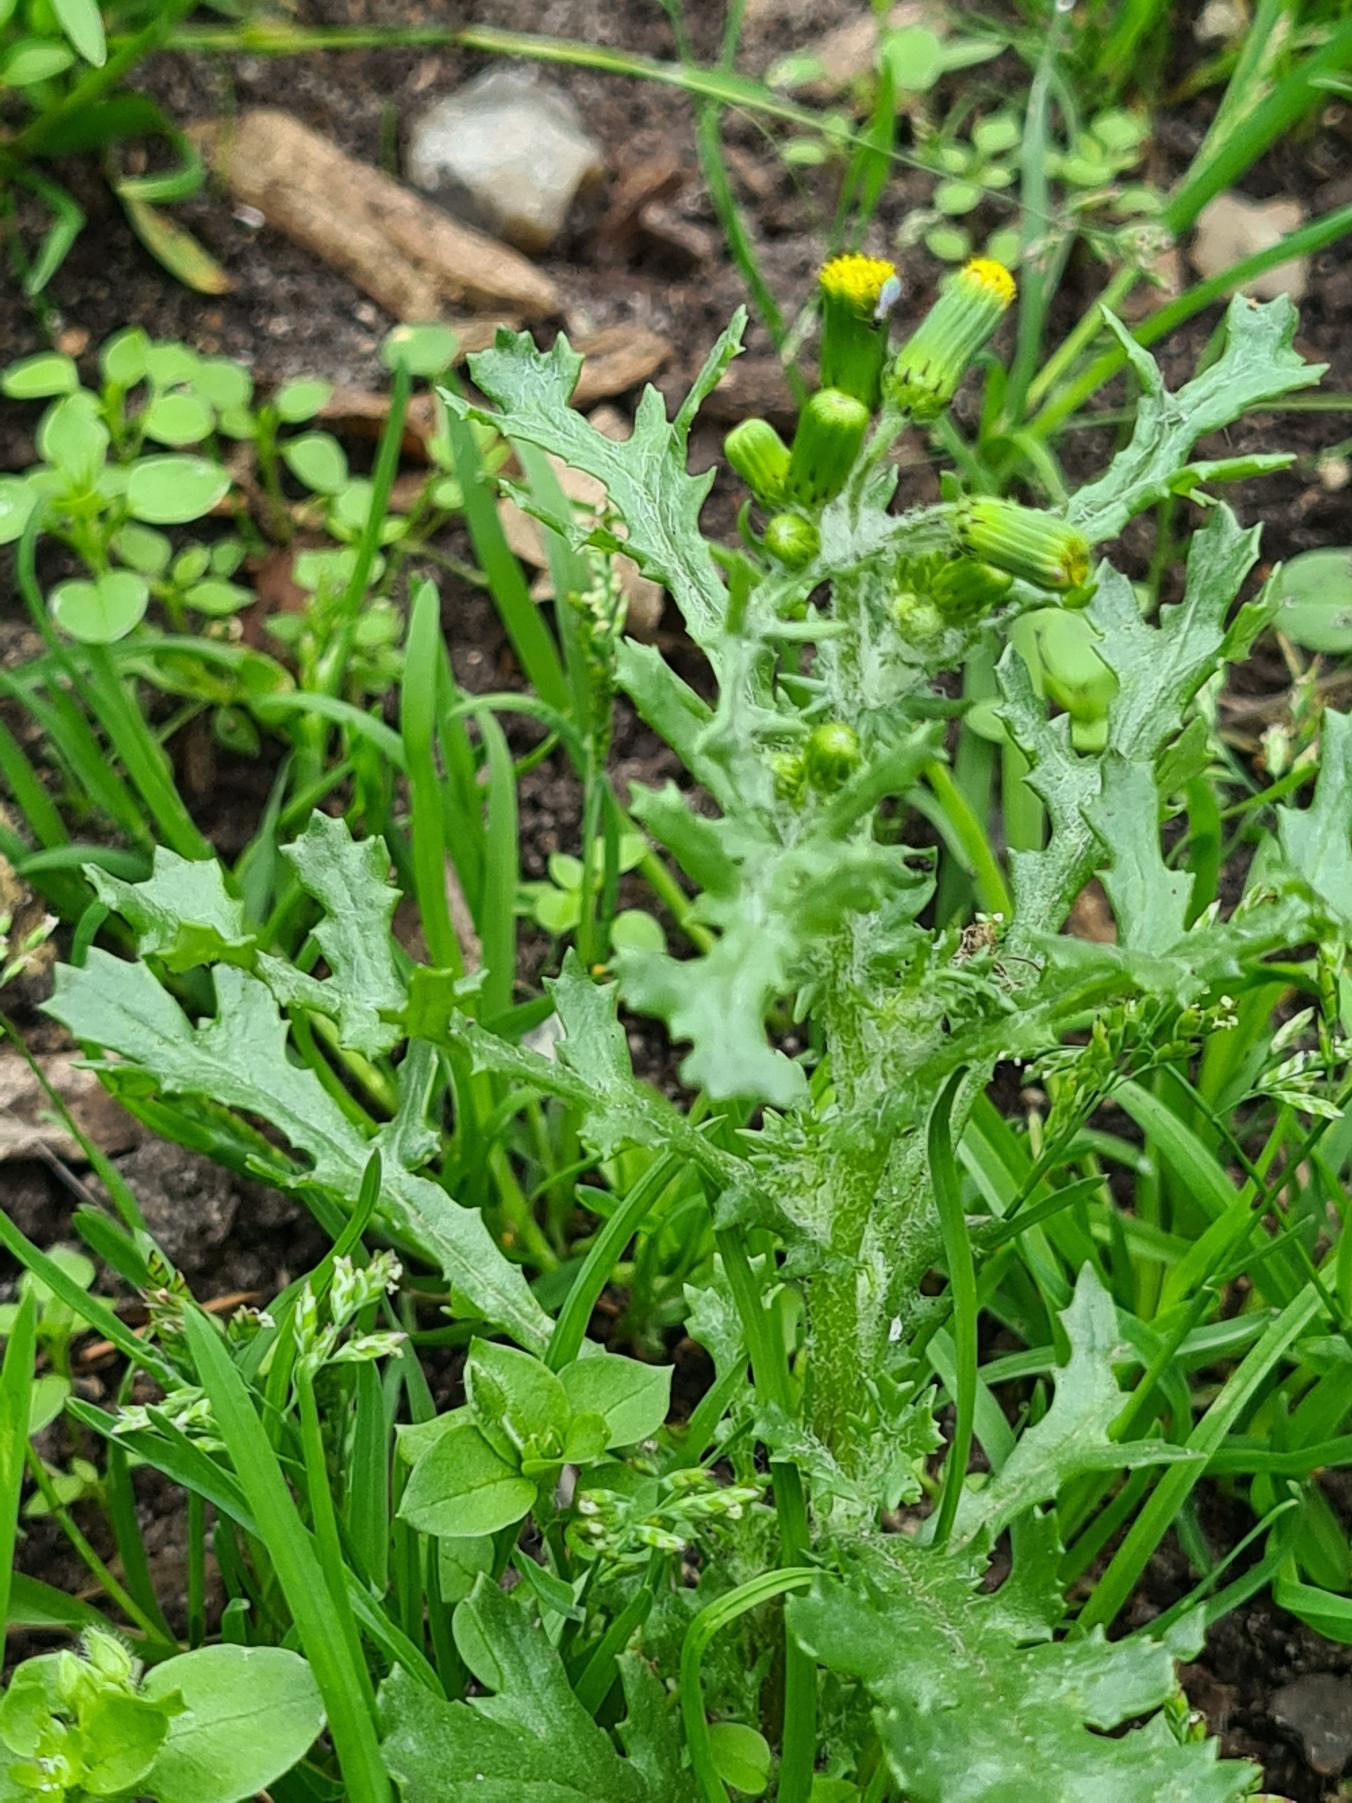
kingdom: Plantae
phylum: Tracheophyta
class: Magnoliopsida
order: Asterales
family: Asteraceae
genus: Senecio
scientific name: Senecio vulgaris
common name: Almindelig brandbæger
